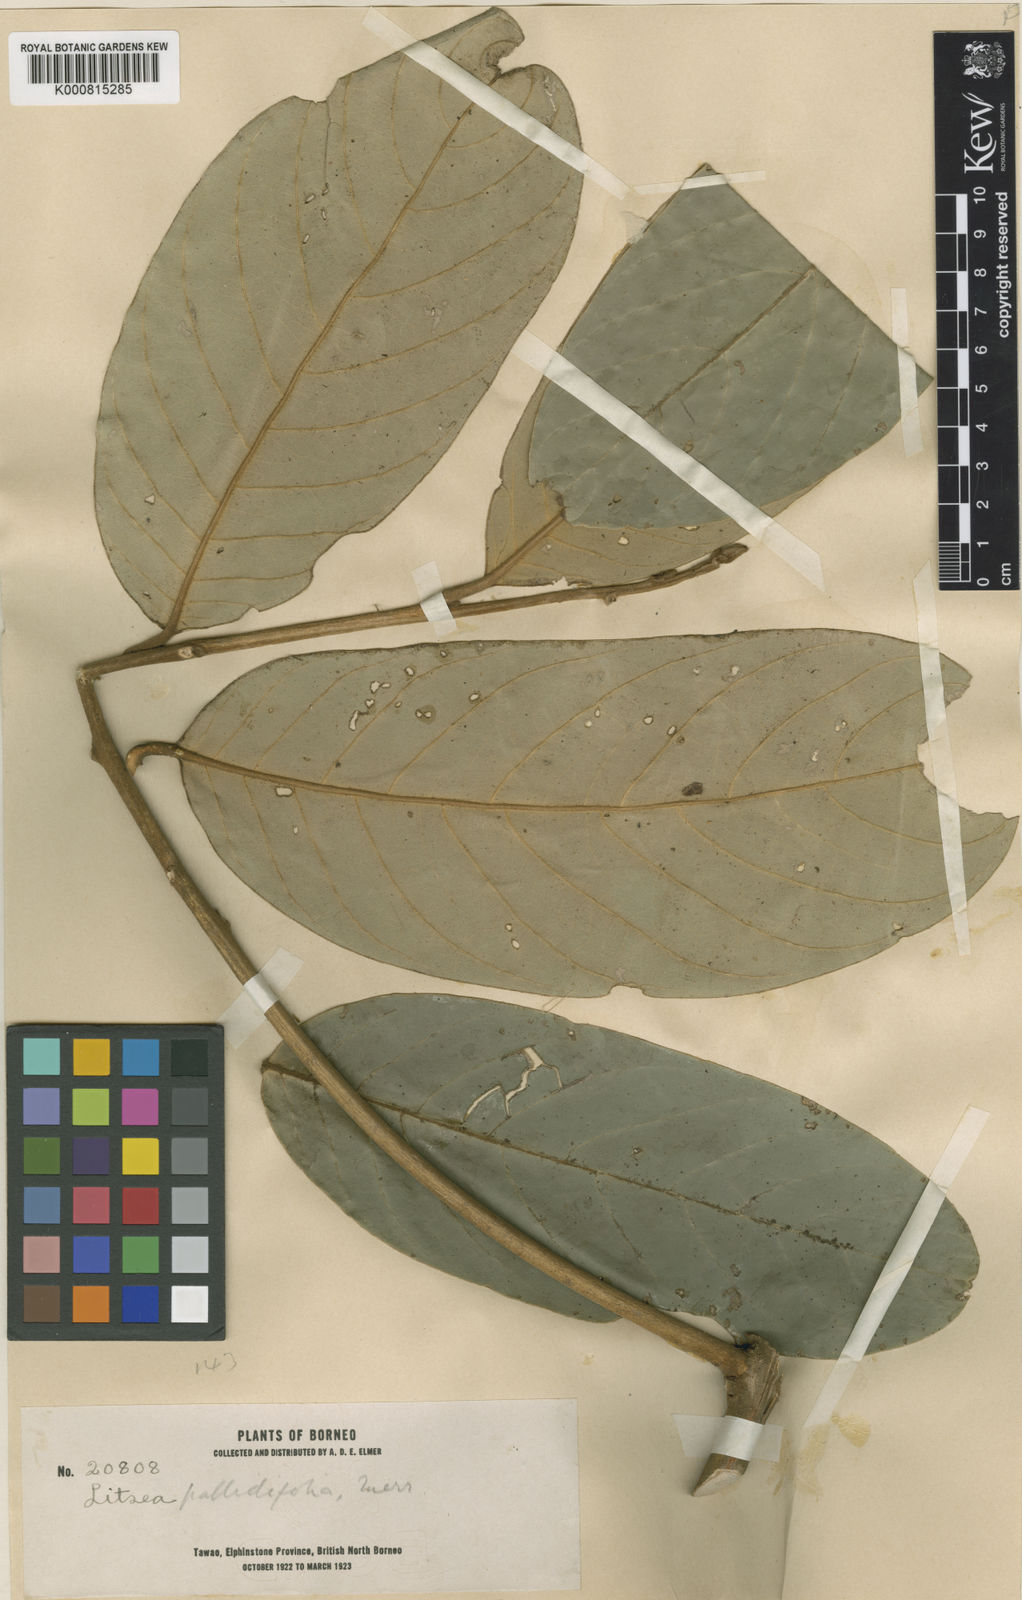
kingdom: Plantae
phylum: Tracheophyta
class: Magnoliopsida
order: Laurales
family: Lauraceae
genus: Litsea
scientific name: Litsea pallidifolia
